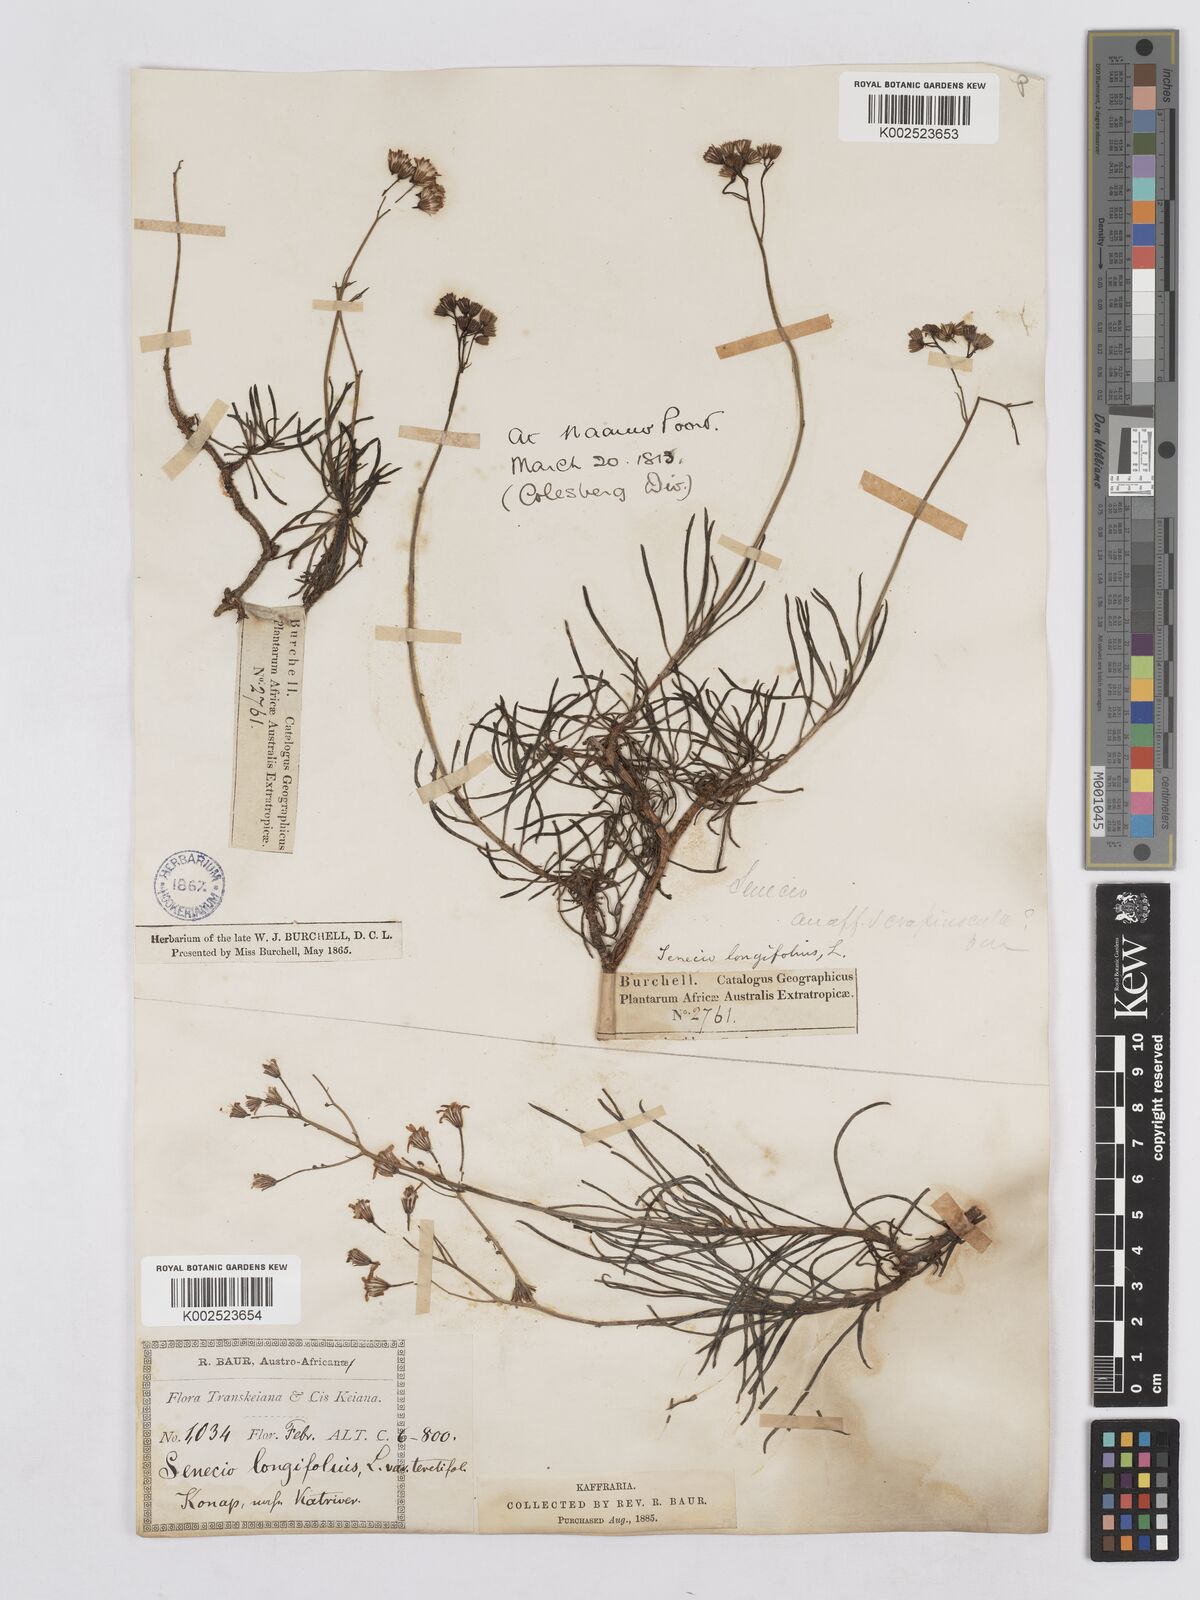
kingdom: Plantae
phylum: Tracheophyta
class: Magnoliopsida
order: Asterales
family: Asteraceae
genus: Senecio
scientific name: Senecio linifolius
